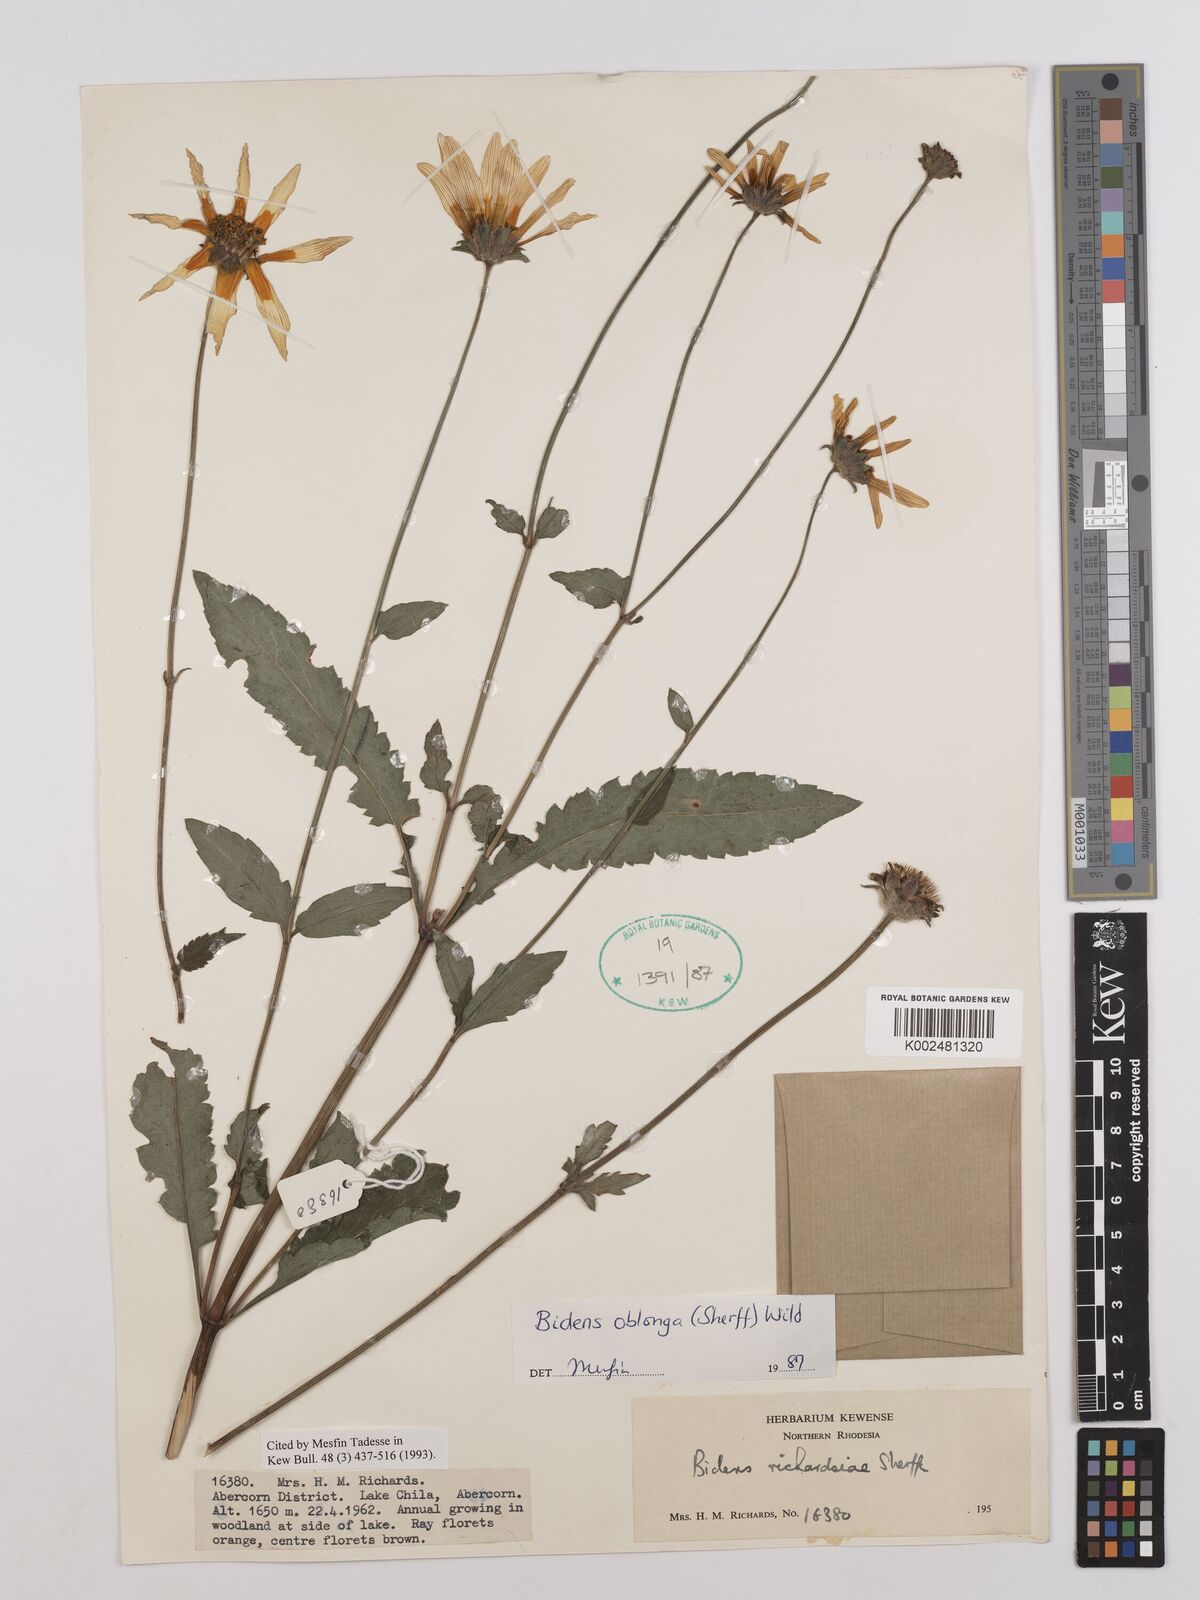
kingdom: Plantae
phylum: Tracheophyta
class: Magnoliopsida
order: Asterales
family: Asteraceae
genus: Bidens
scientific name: Bidens oblonga
